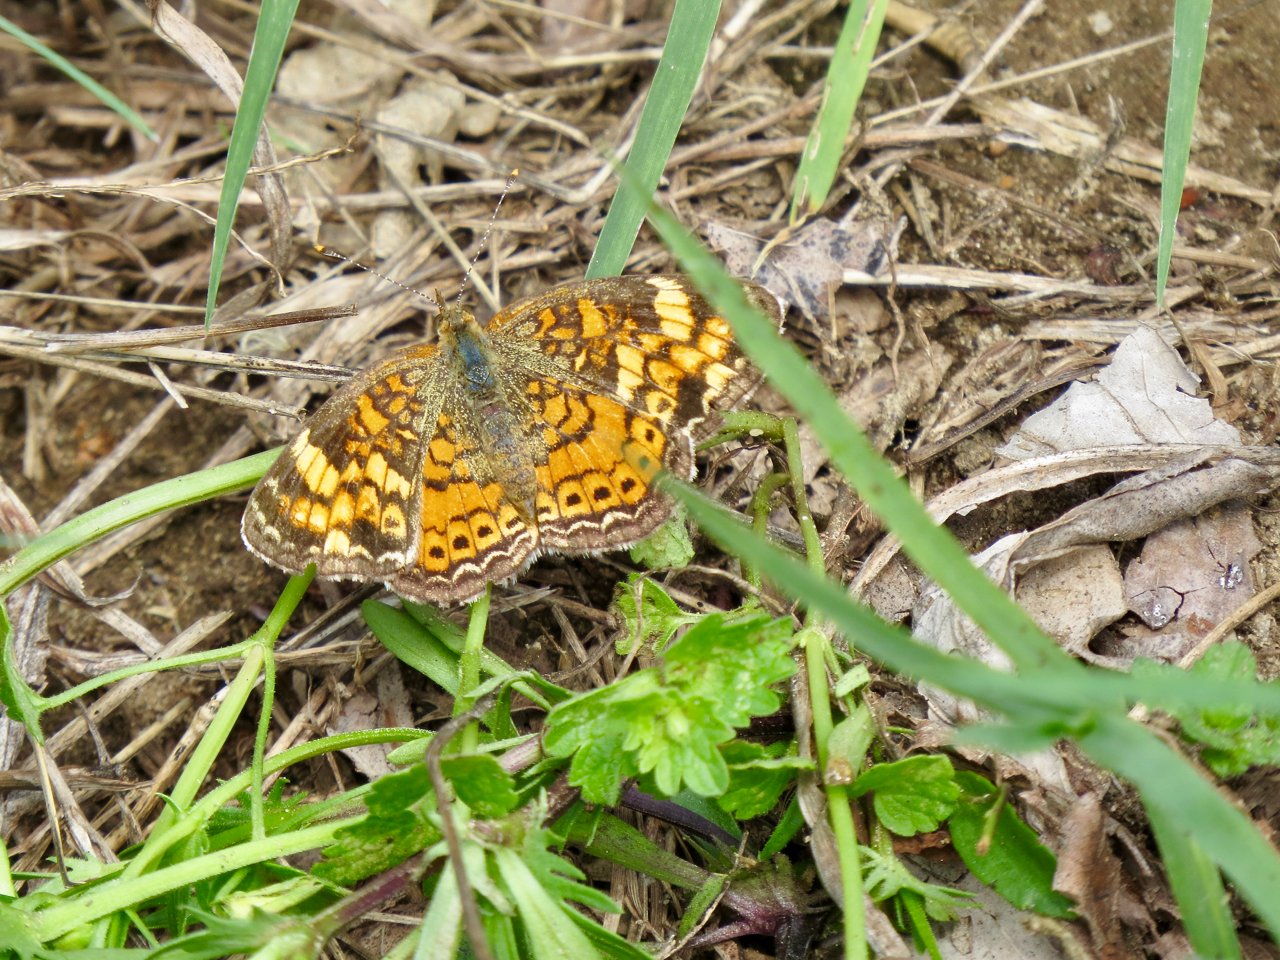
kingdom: Animalia
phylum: Arthropoda
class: Insecta
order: Lepidoptera
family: Nymphalidae
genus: Phyciodes
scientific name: Phyciodes tharos
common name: Pearl Crescent
